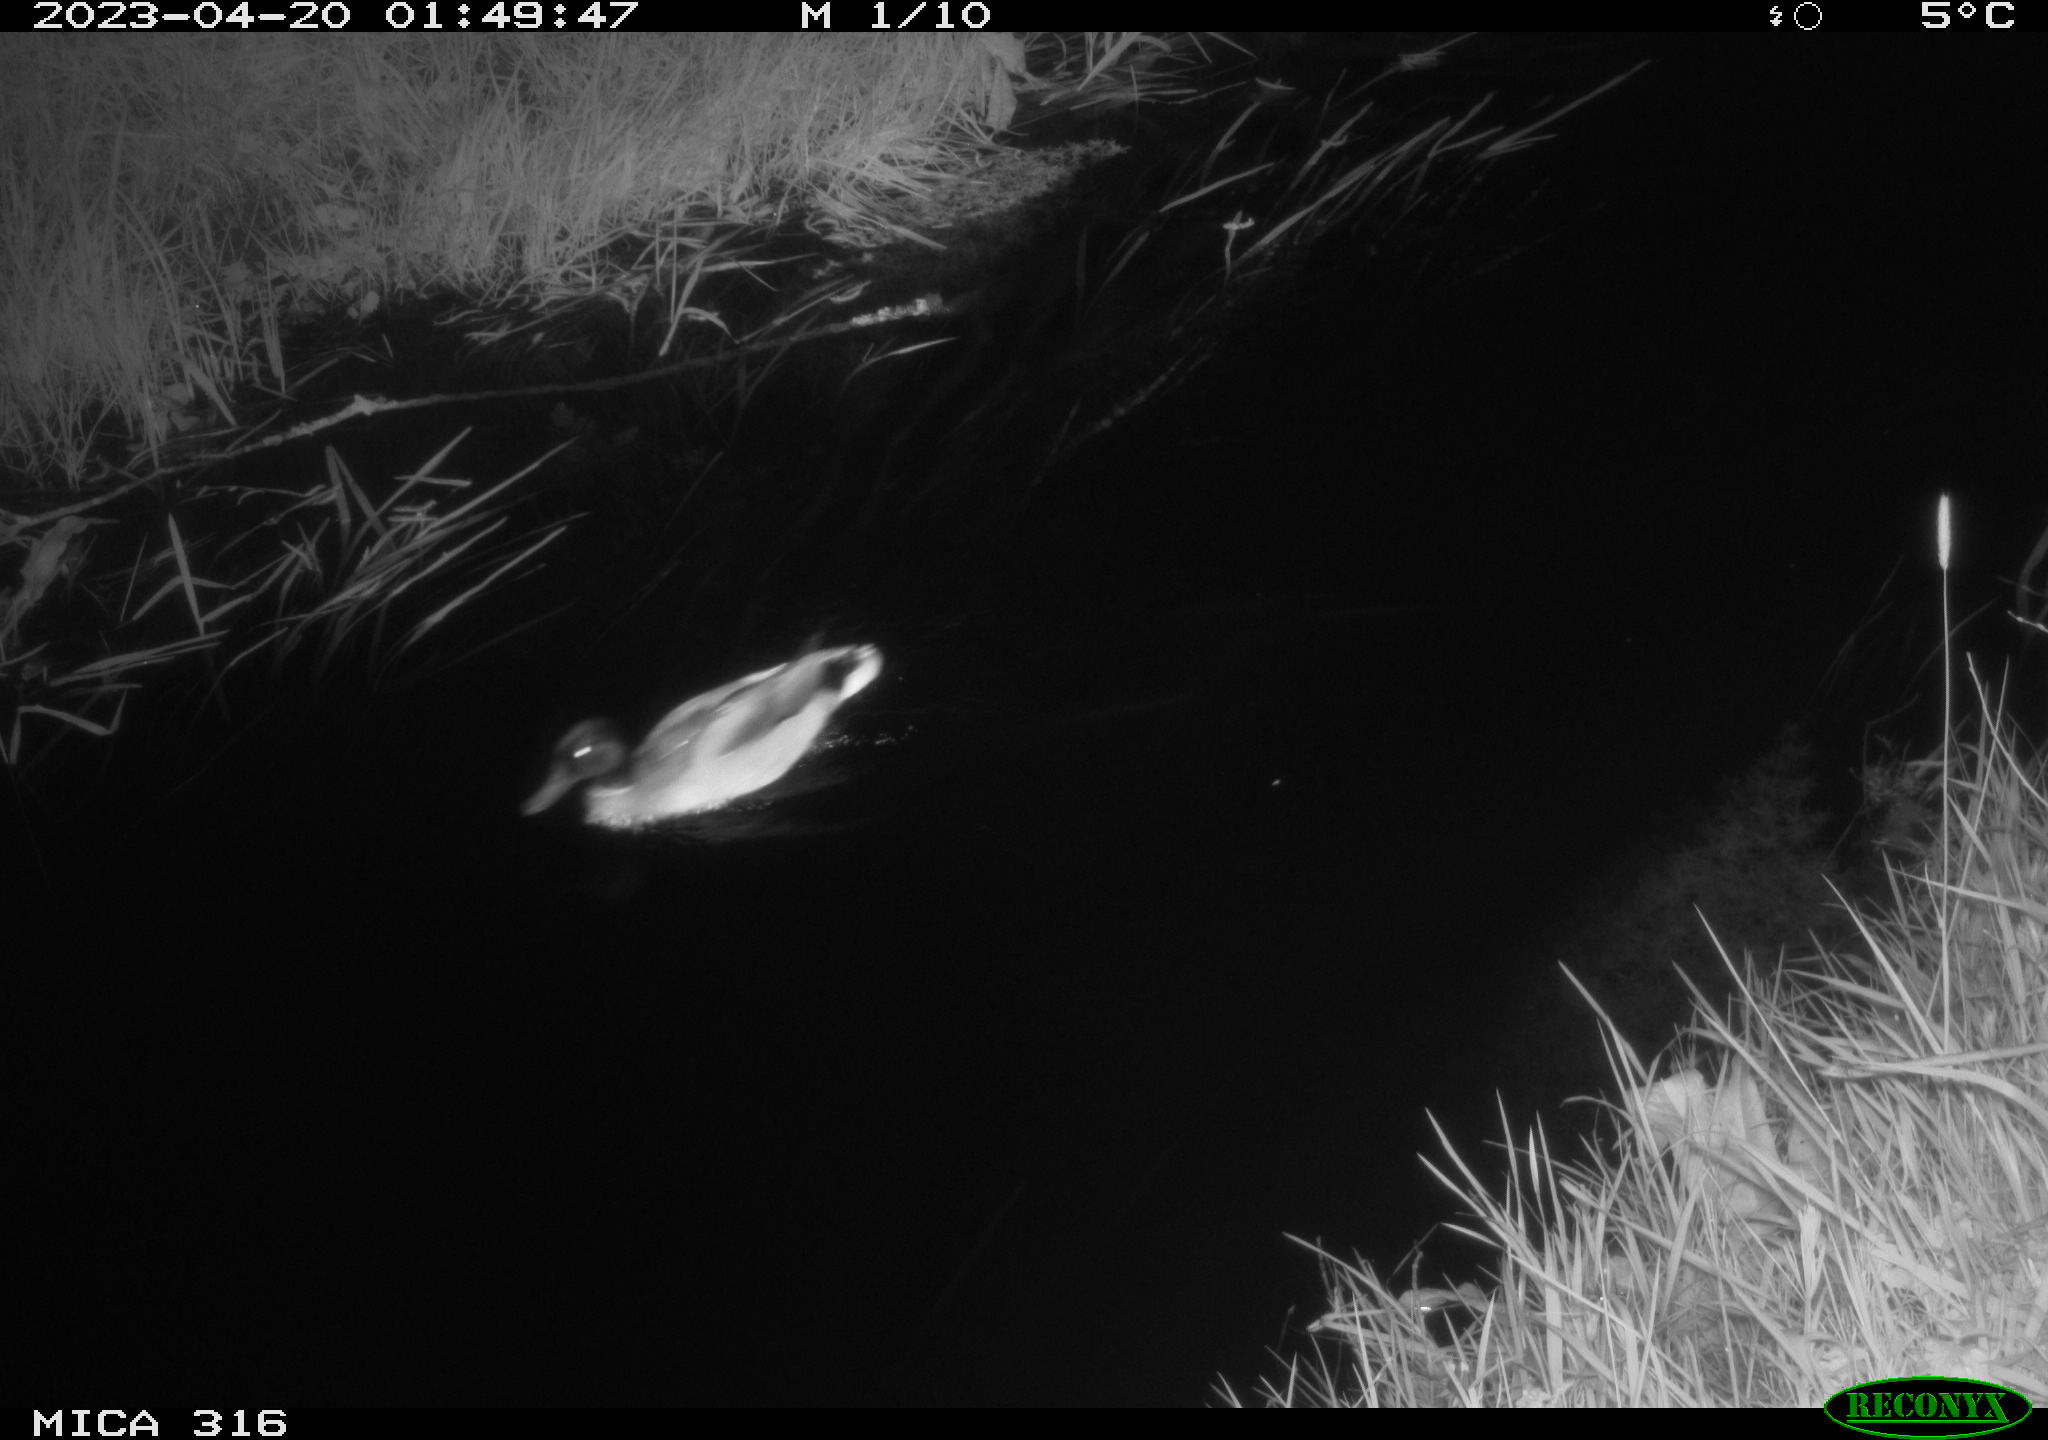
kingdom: Animalia
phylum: Chordata
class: Aves
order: Anseriformes
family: Anatidae
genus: Anas
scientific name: Anas
